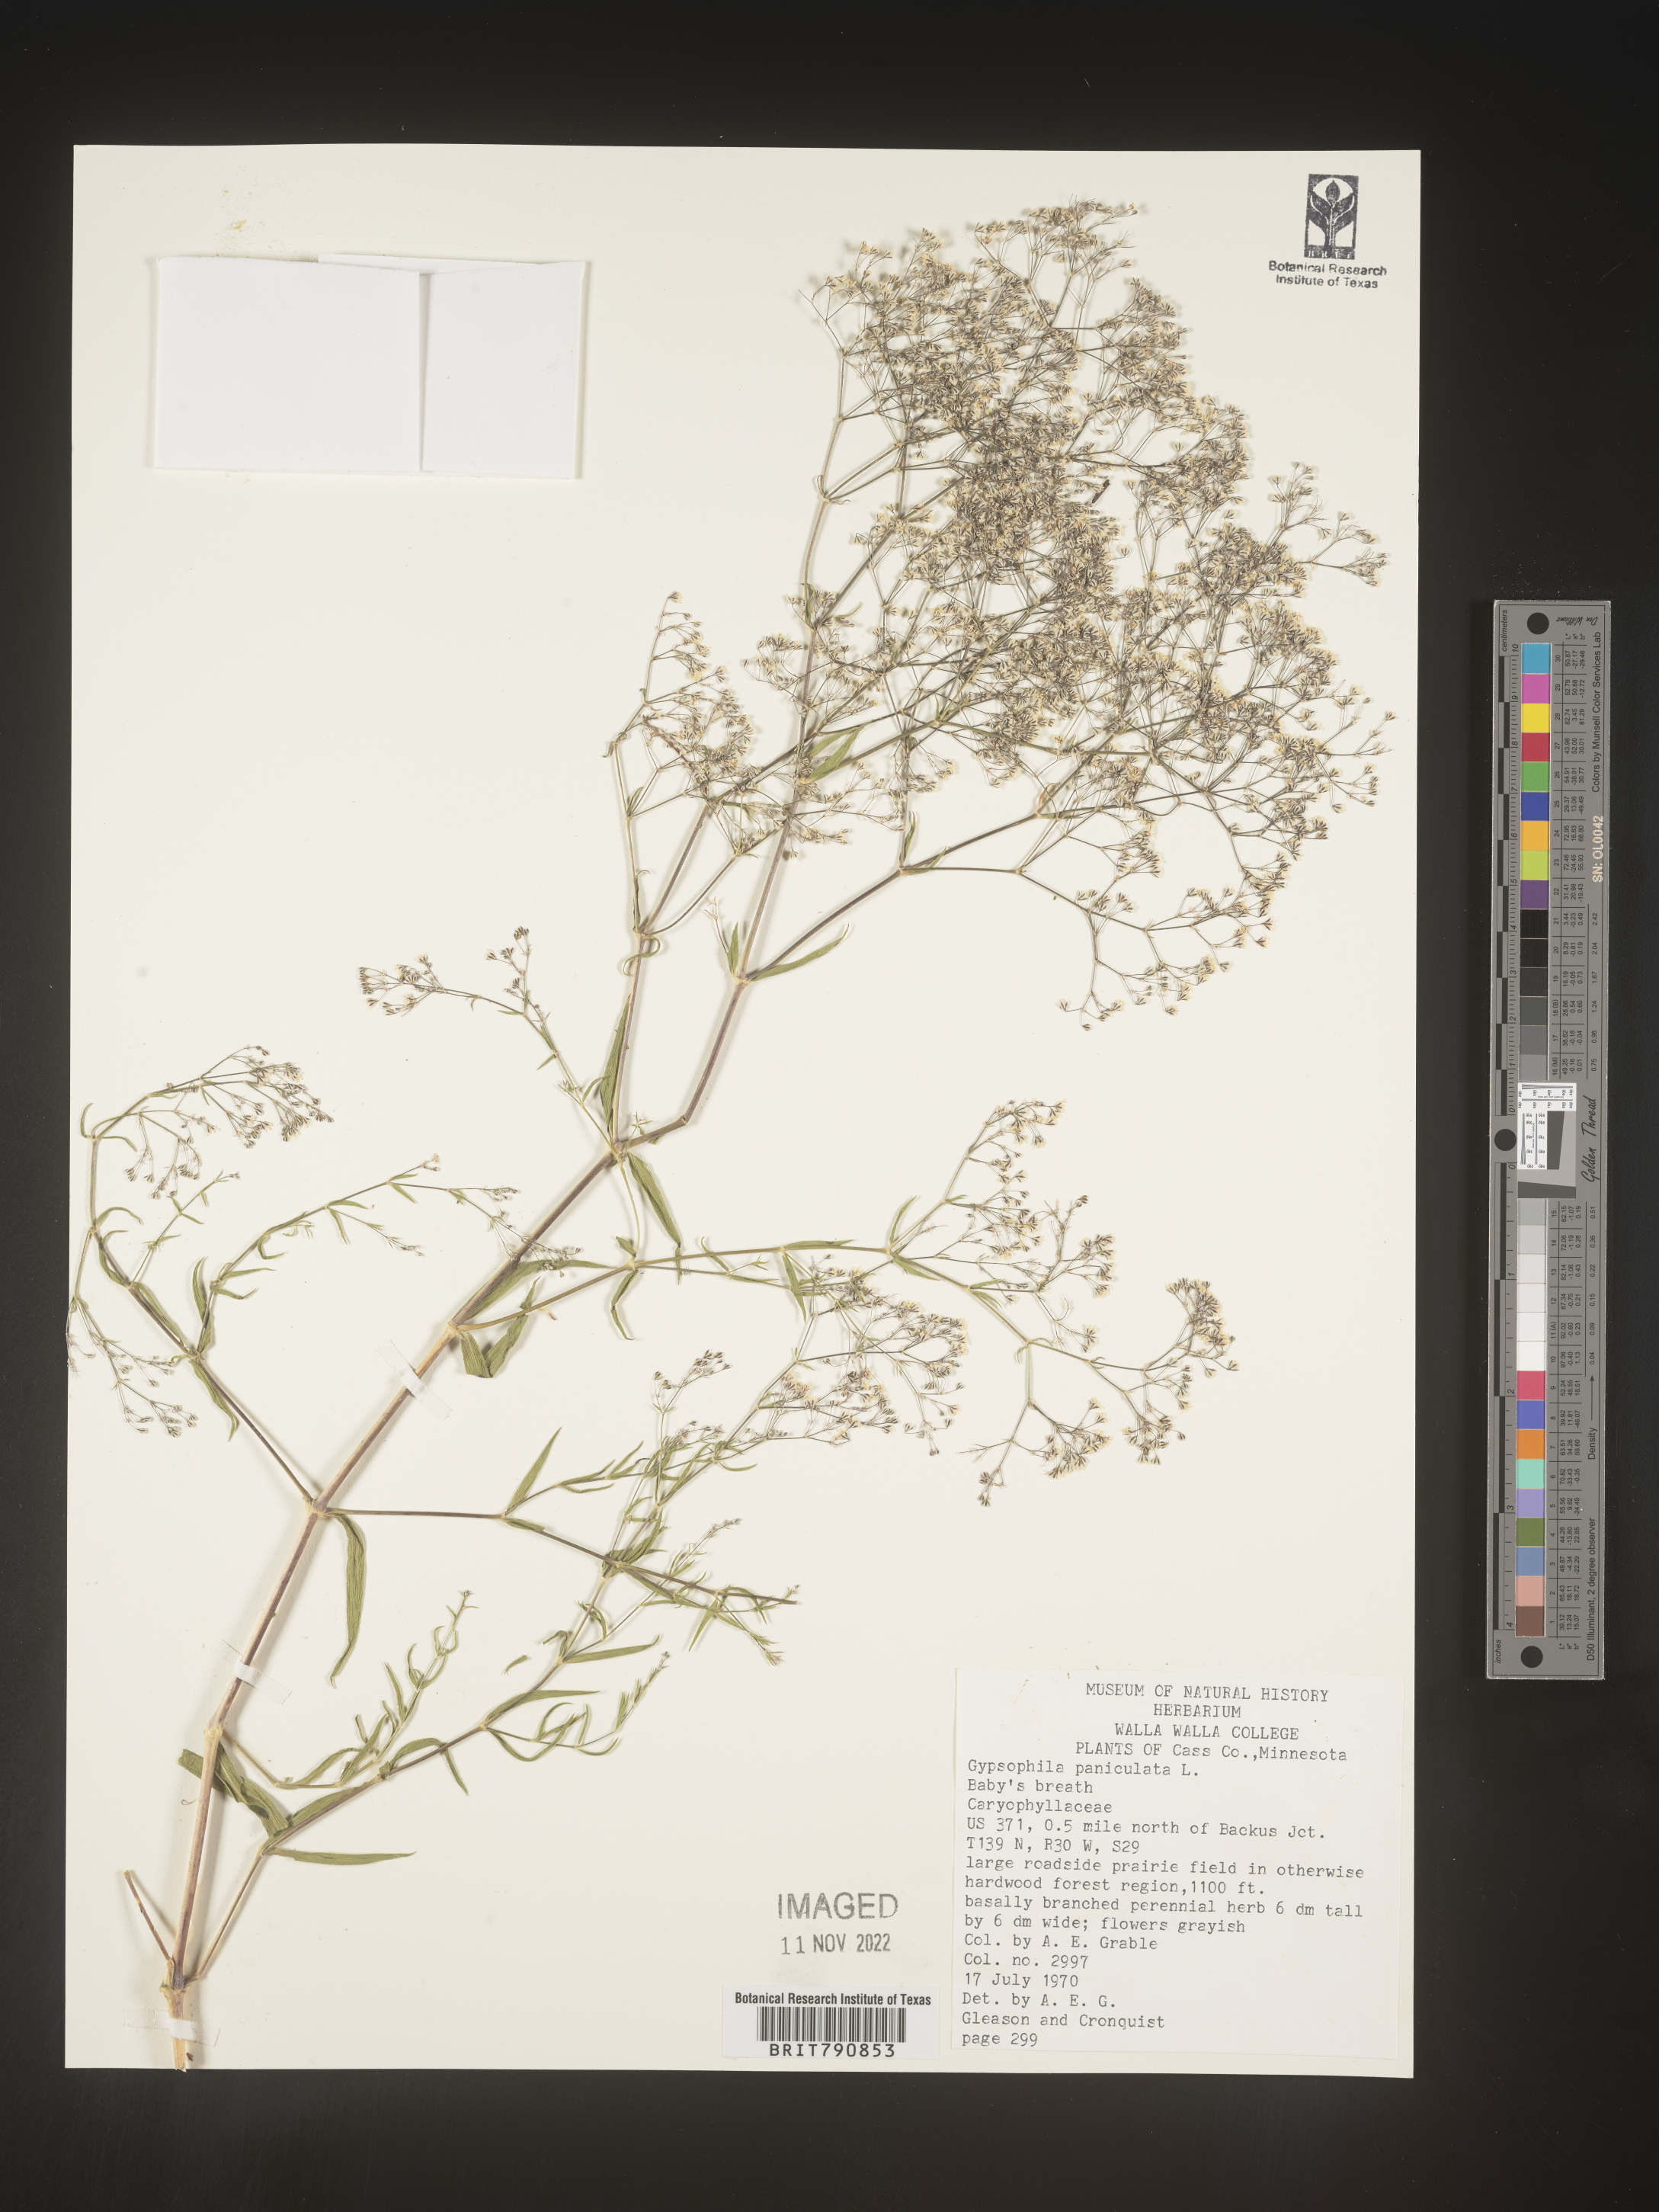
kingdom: Plantae
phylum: Tracheophyta
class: Magnoliopsida
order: Caryophyllales
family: Caryophyllaceae
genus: Gypsophila
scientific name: Gypsophila
